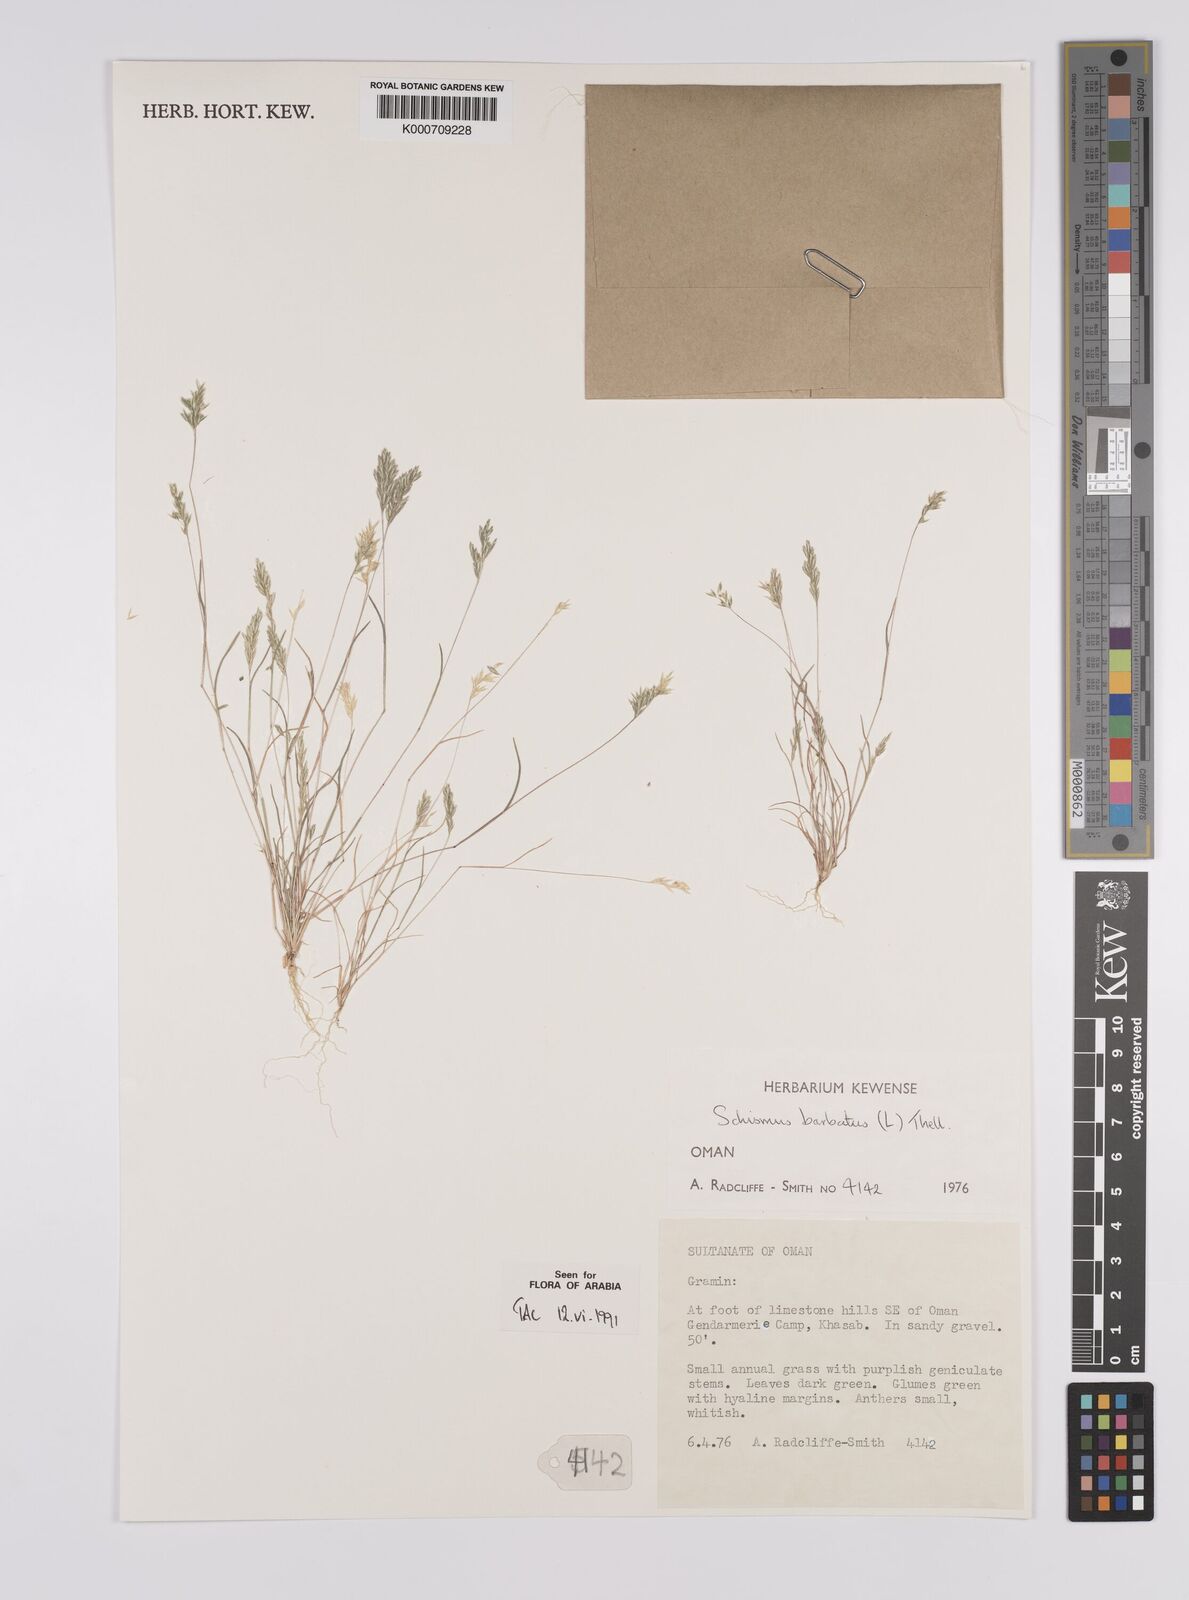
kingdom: Plantae
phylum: Tracheophyta
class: Liliopsida
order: Poales
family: Poaceae
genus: Schismus
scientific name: Schismus barbatus
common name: Kelch-grass
